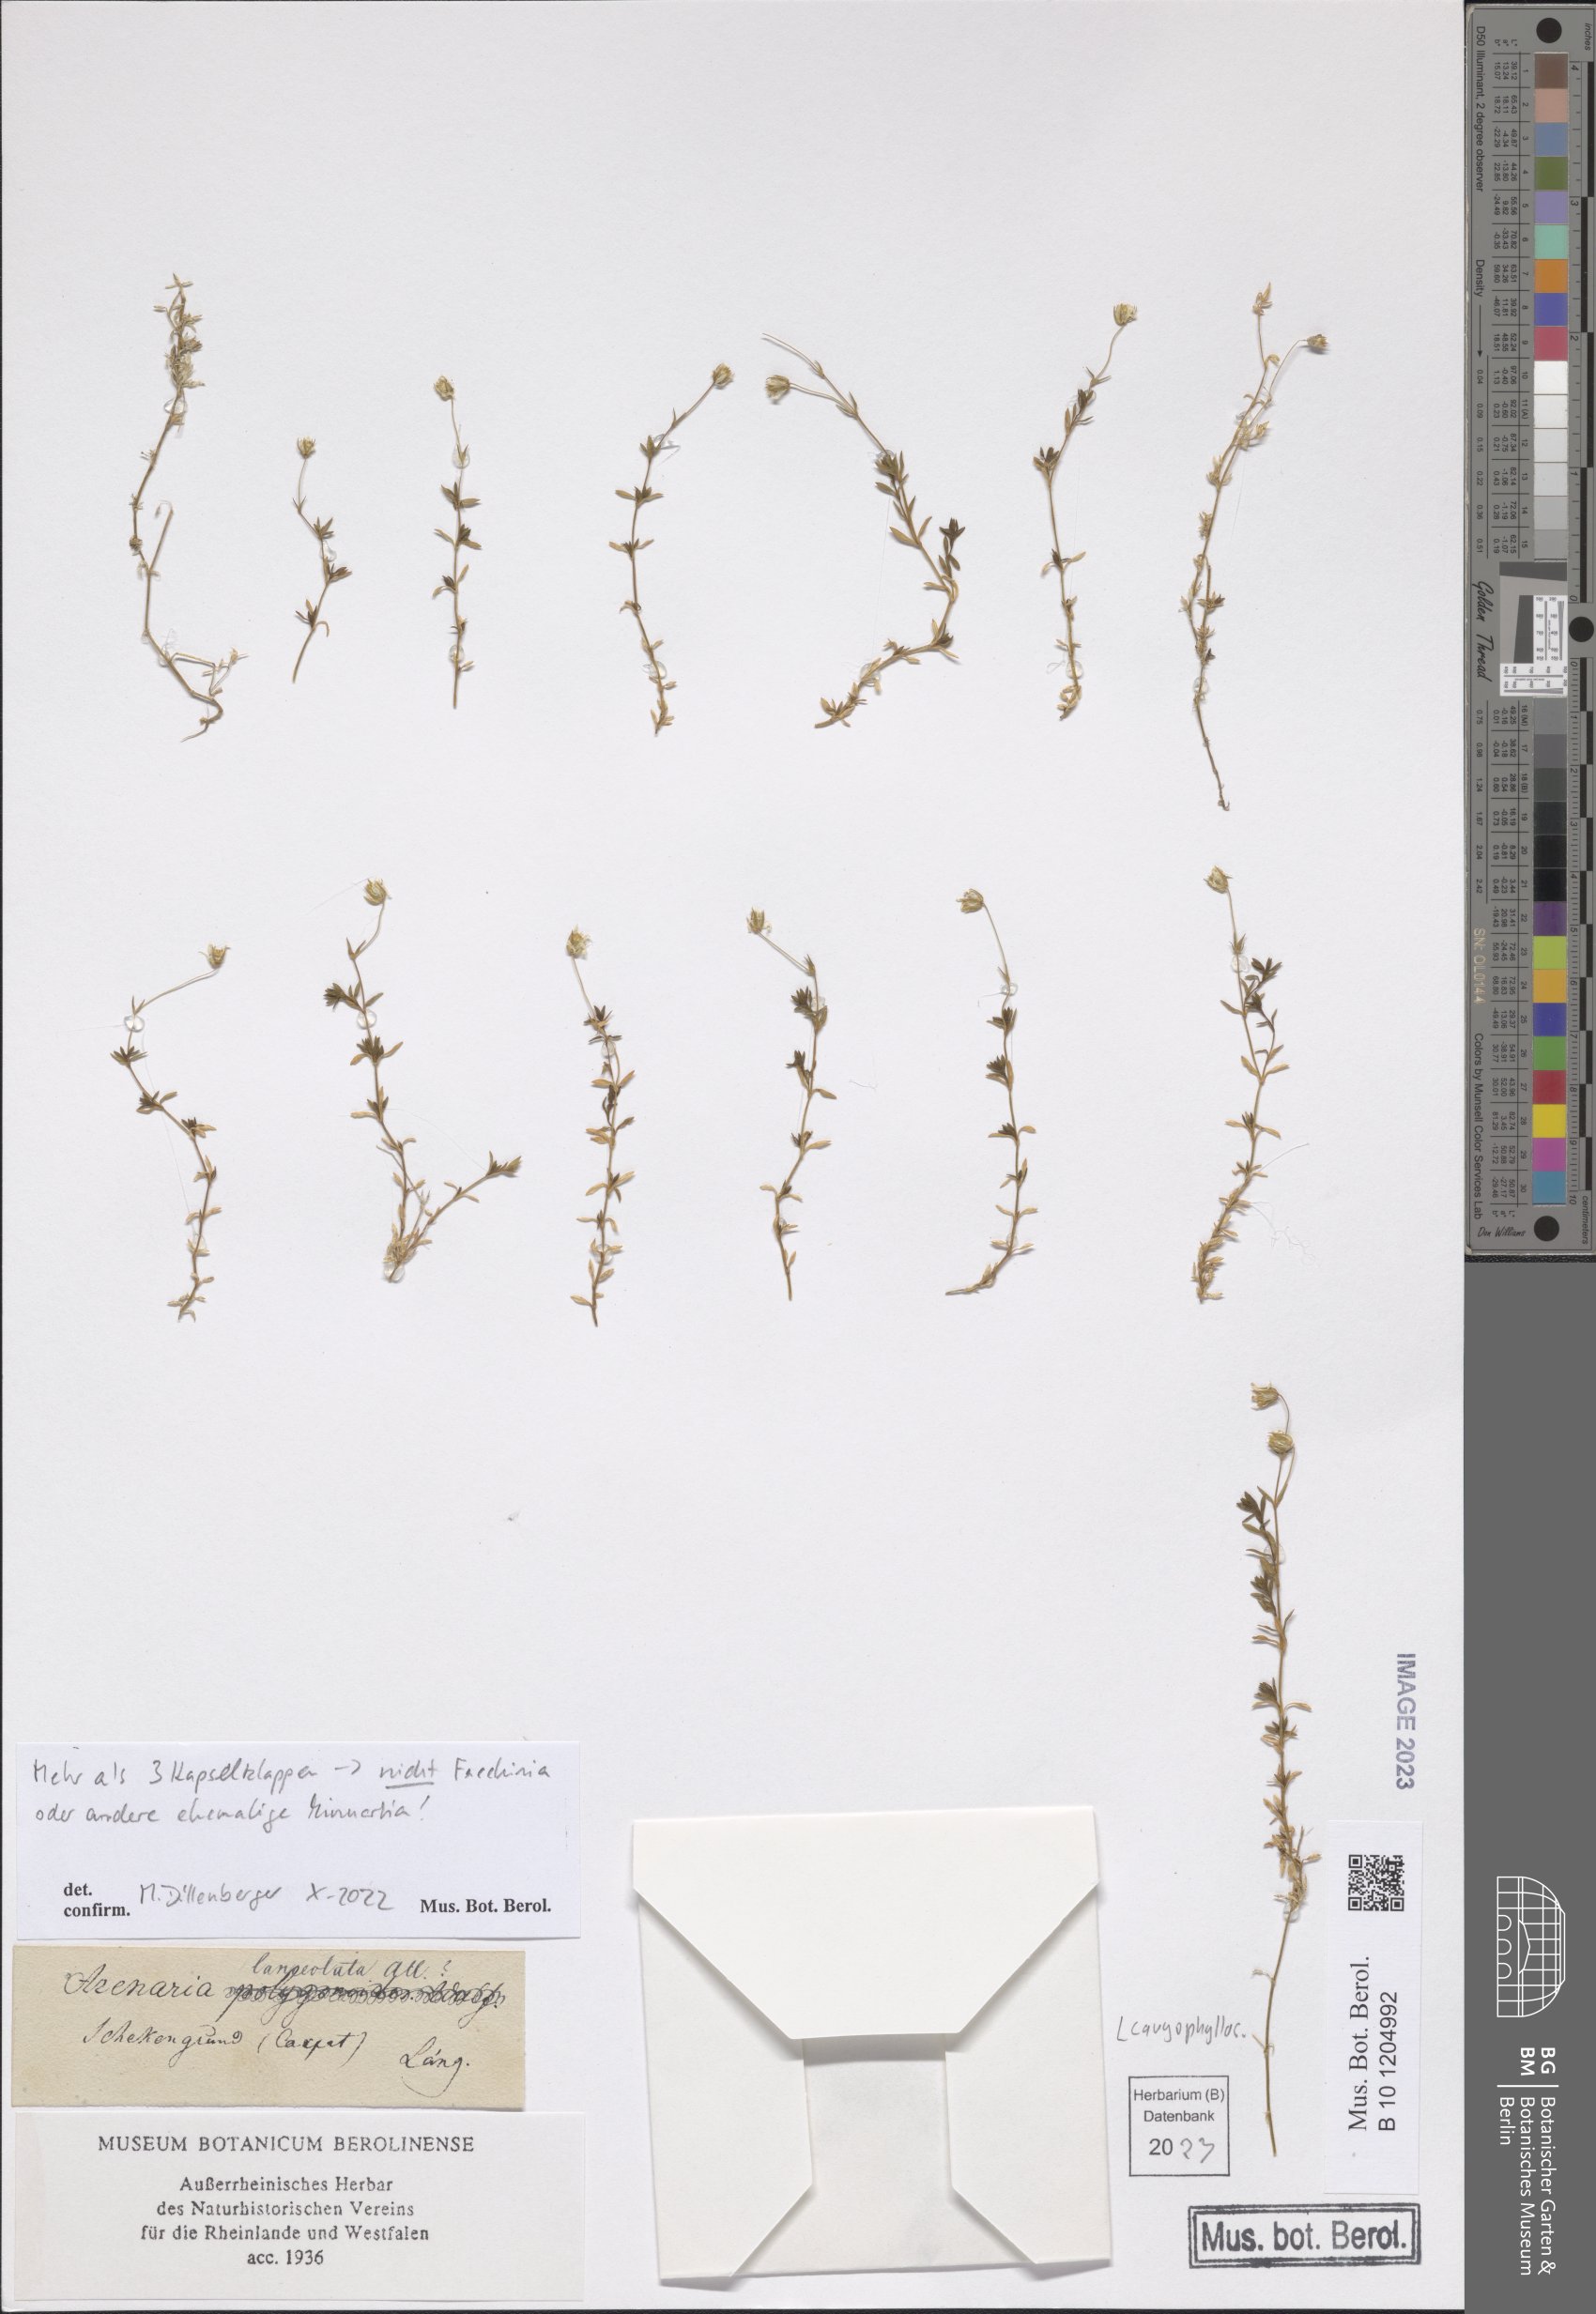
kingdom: Plantae
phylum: Tracheophyta
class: Magnoliopsida
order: Caryophyllales
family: Caryophyllaceae
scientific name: Caryophyllaceae
